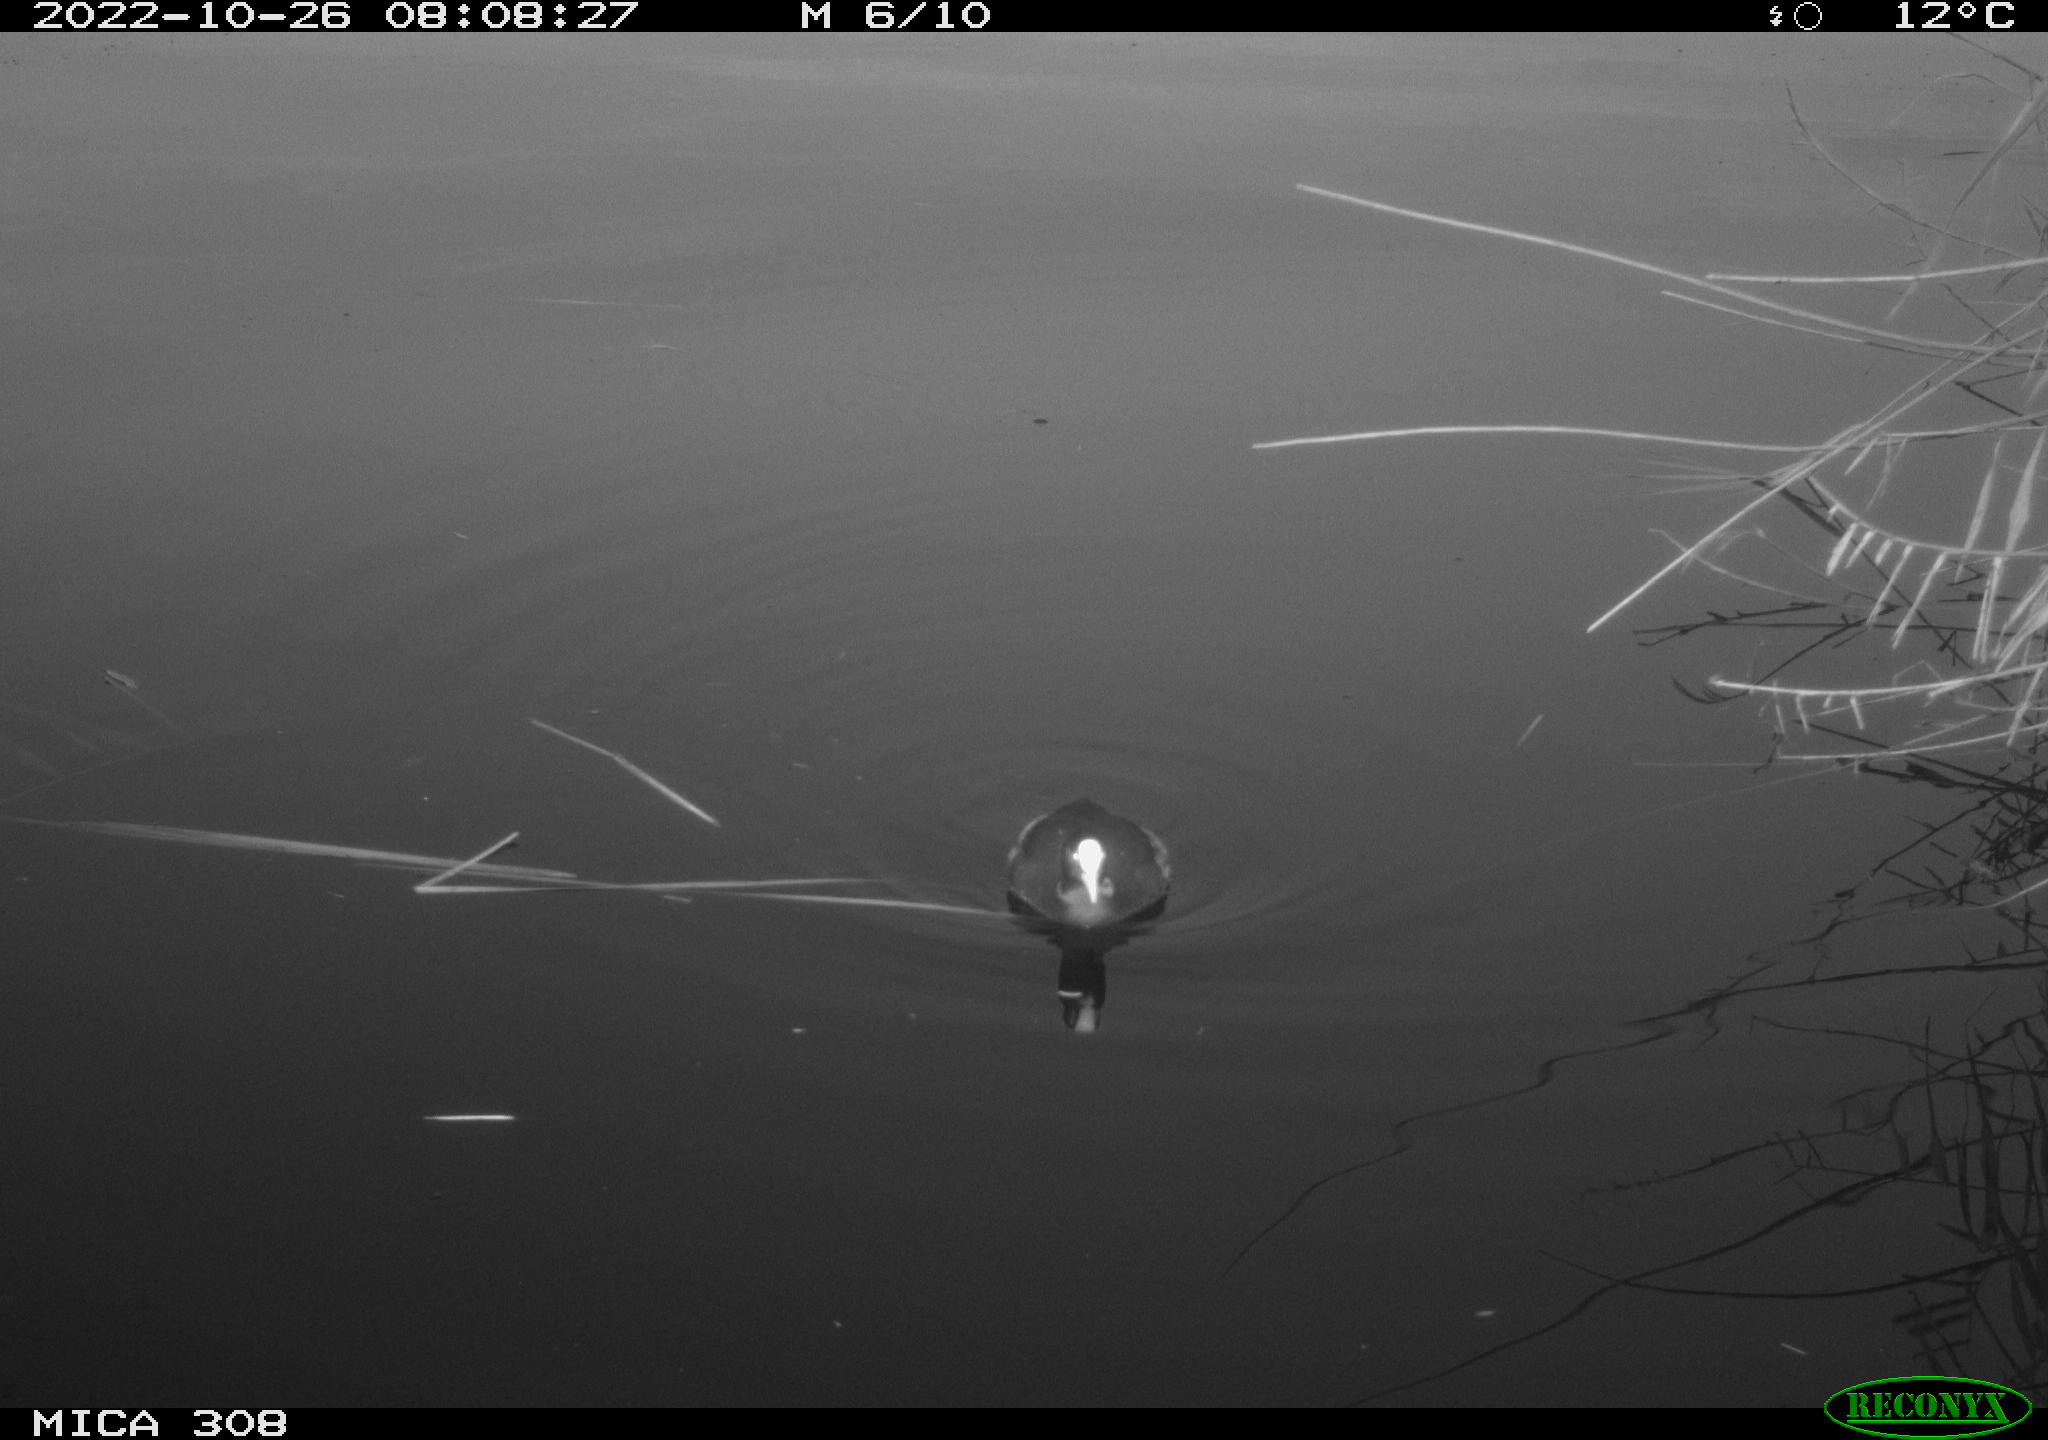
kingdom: Animalia
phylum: Chordata
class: Aves
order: Gruiformes
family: Rallidae
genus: Fulica
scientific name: Fulica atra
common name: Eurasian coot
